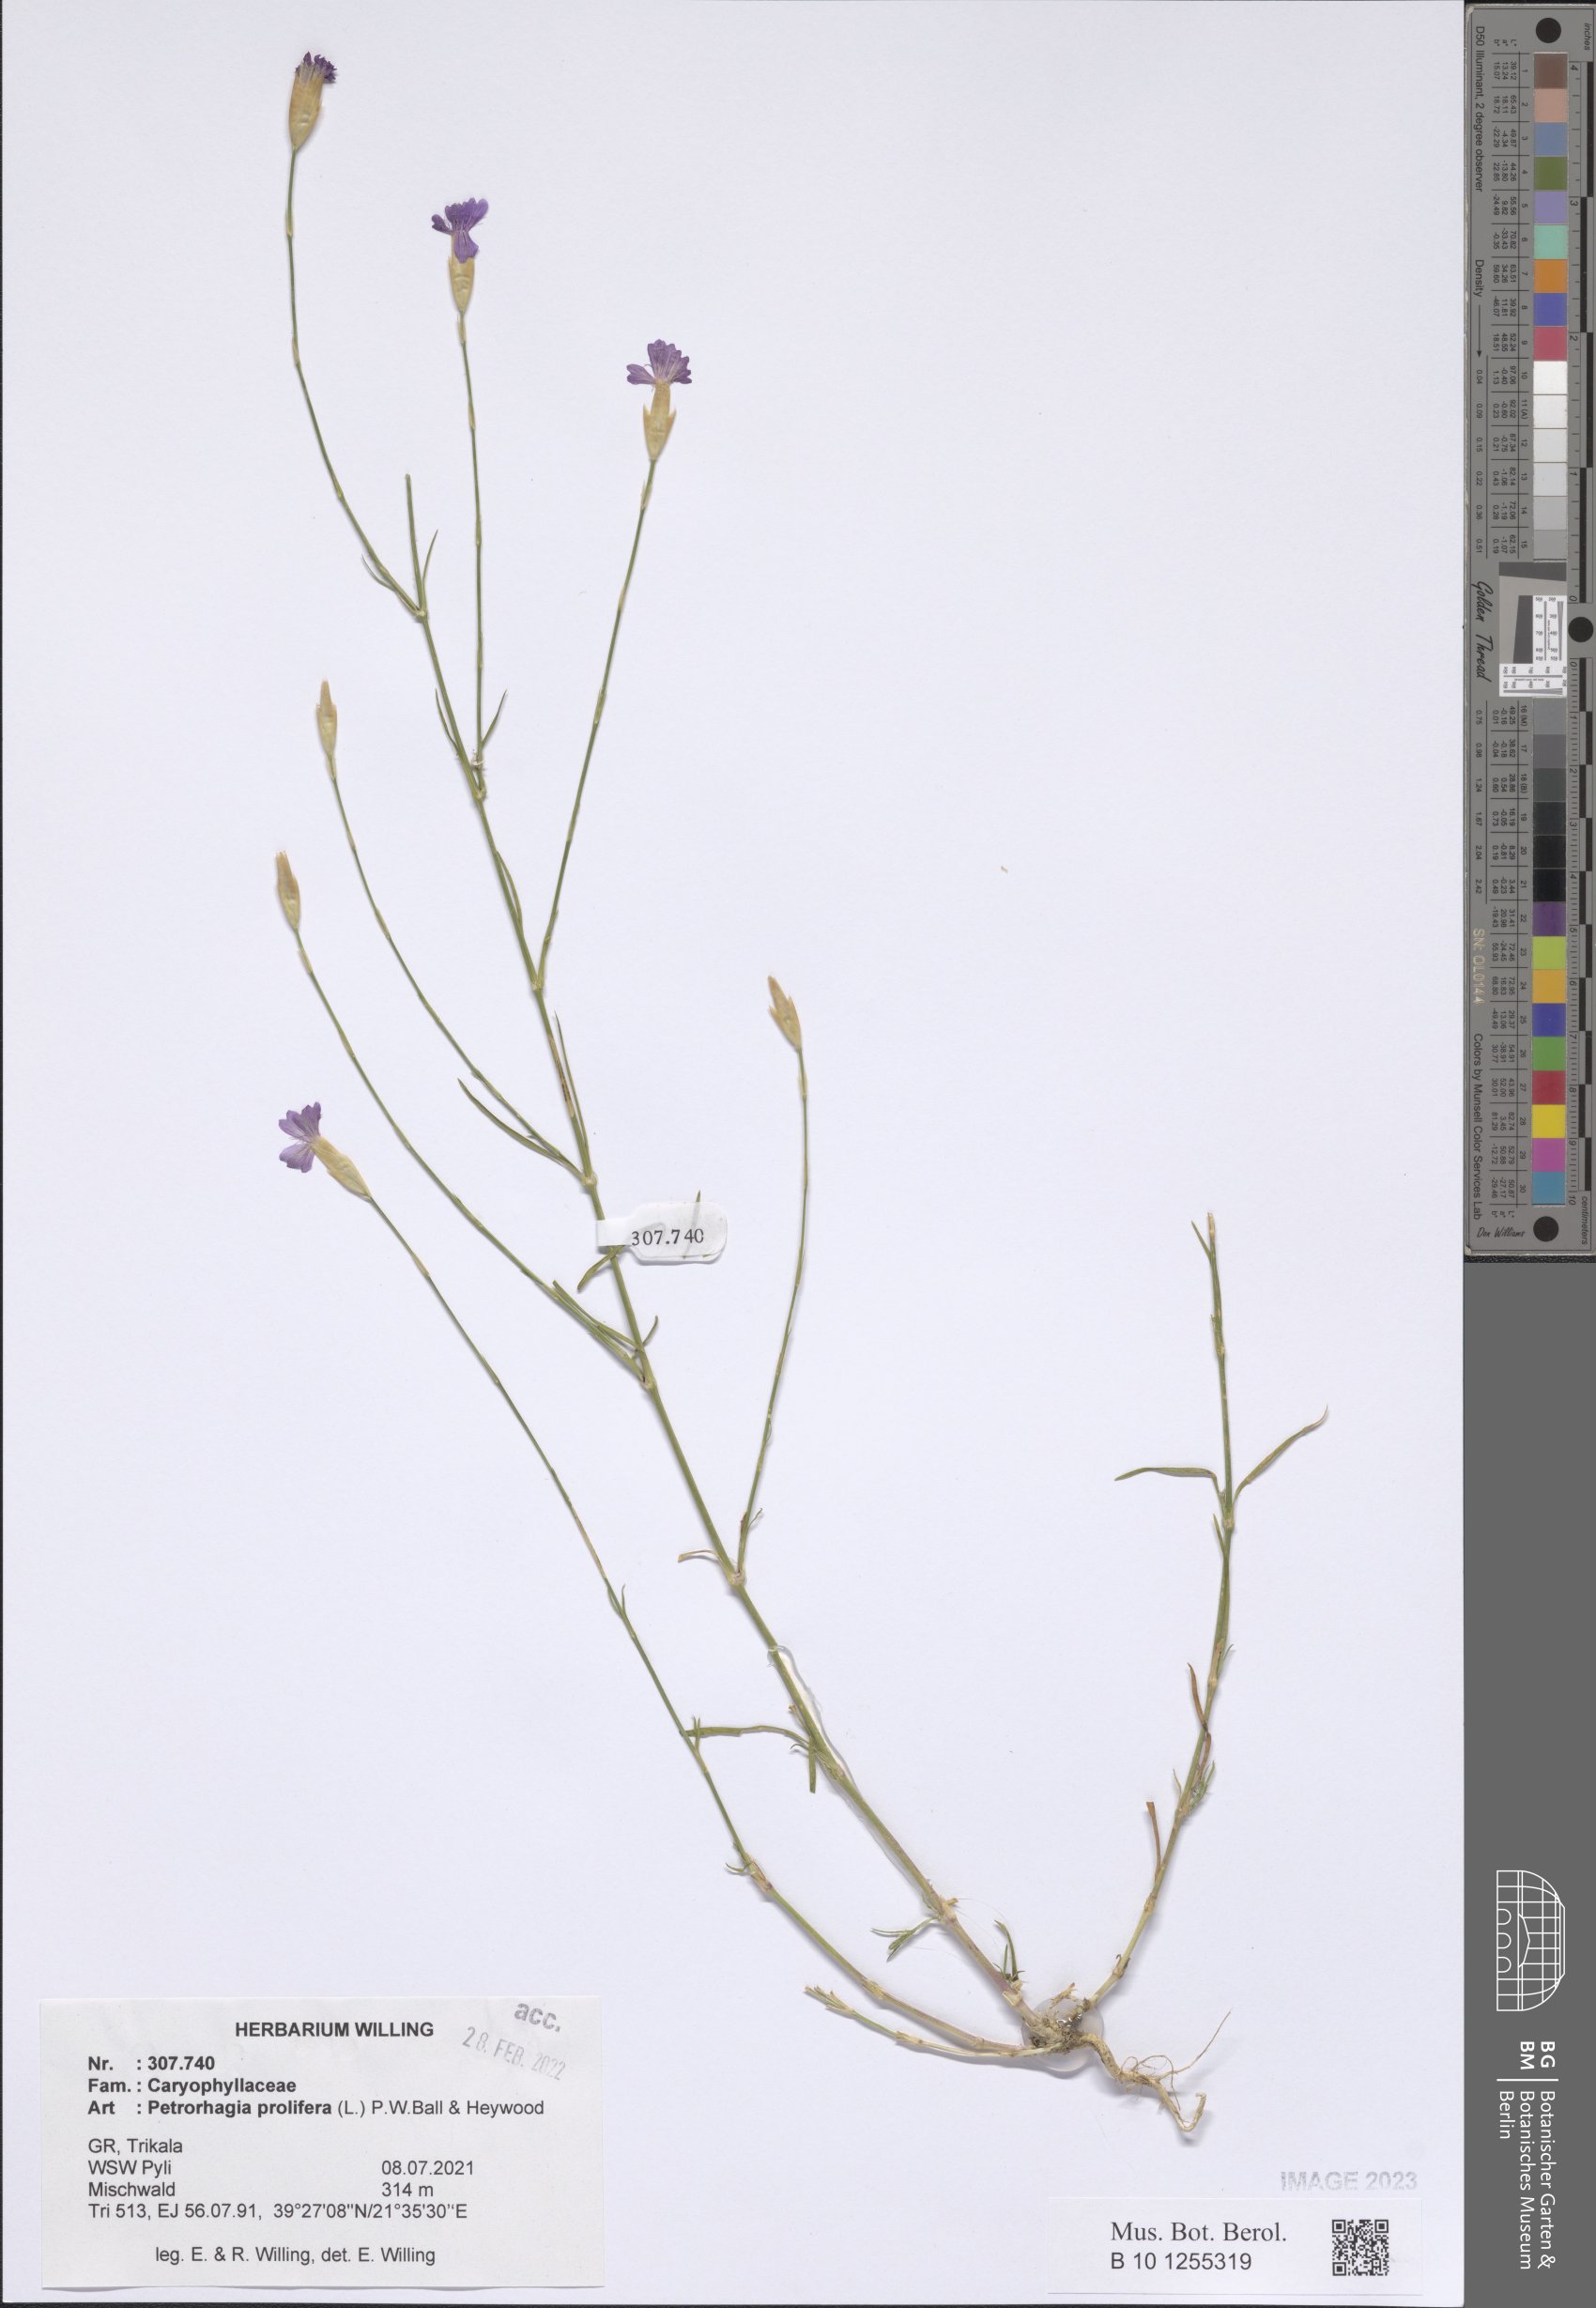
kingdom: Plantae
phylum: Tracheophyta
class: Magnoliopsida
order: Caryophyllales
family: Caryophyllaceae
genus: Petrorhagia
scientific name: Petrorhagia prolifera
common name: Proliferous pink
